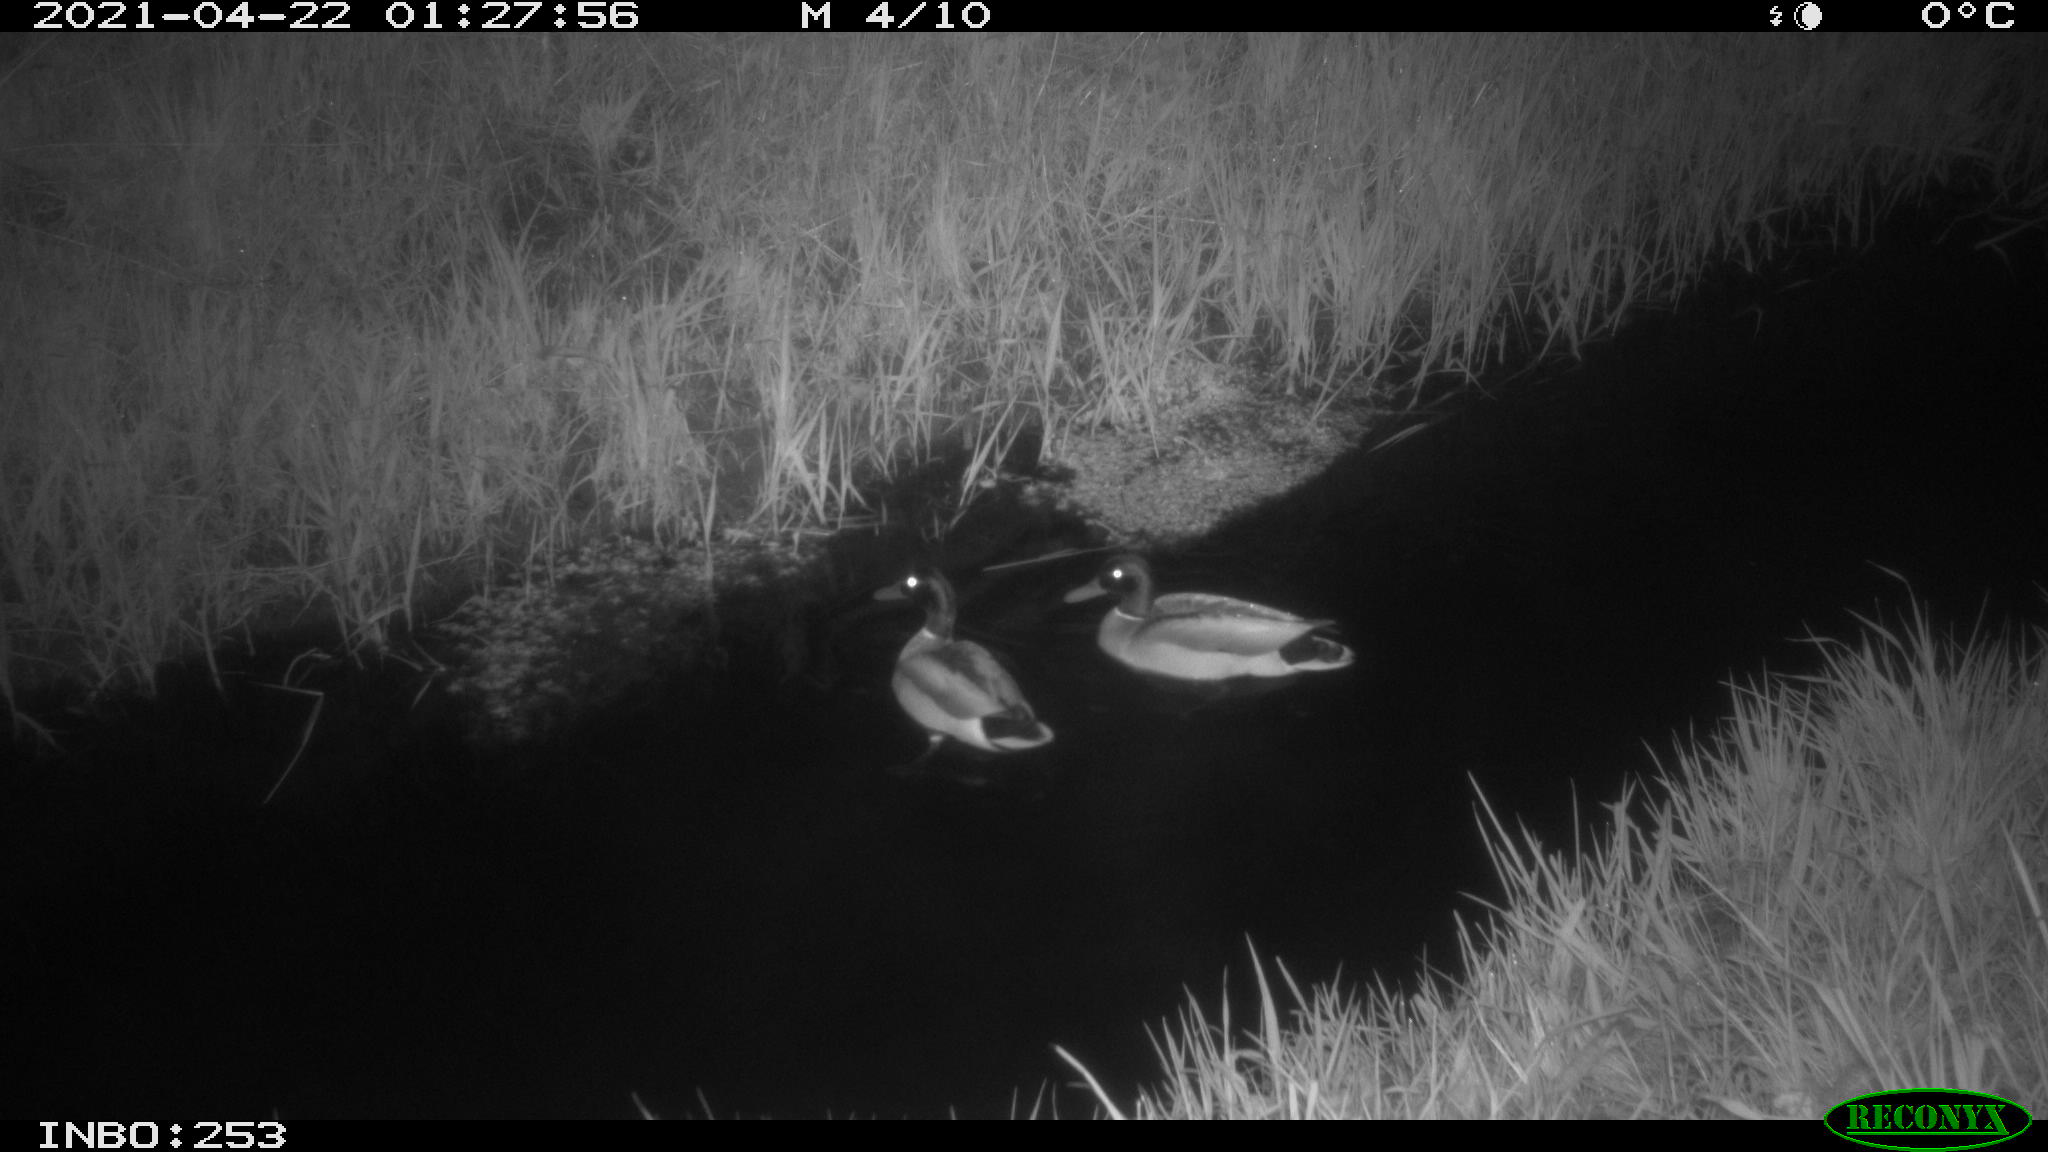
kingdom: Animalia
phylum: Chordata
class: Aves
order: Anseriformes
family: Anatidae
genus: Anas
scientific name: Anas platyrhynchos
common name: Mallard
